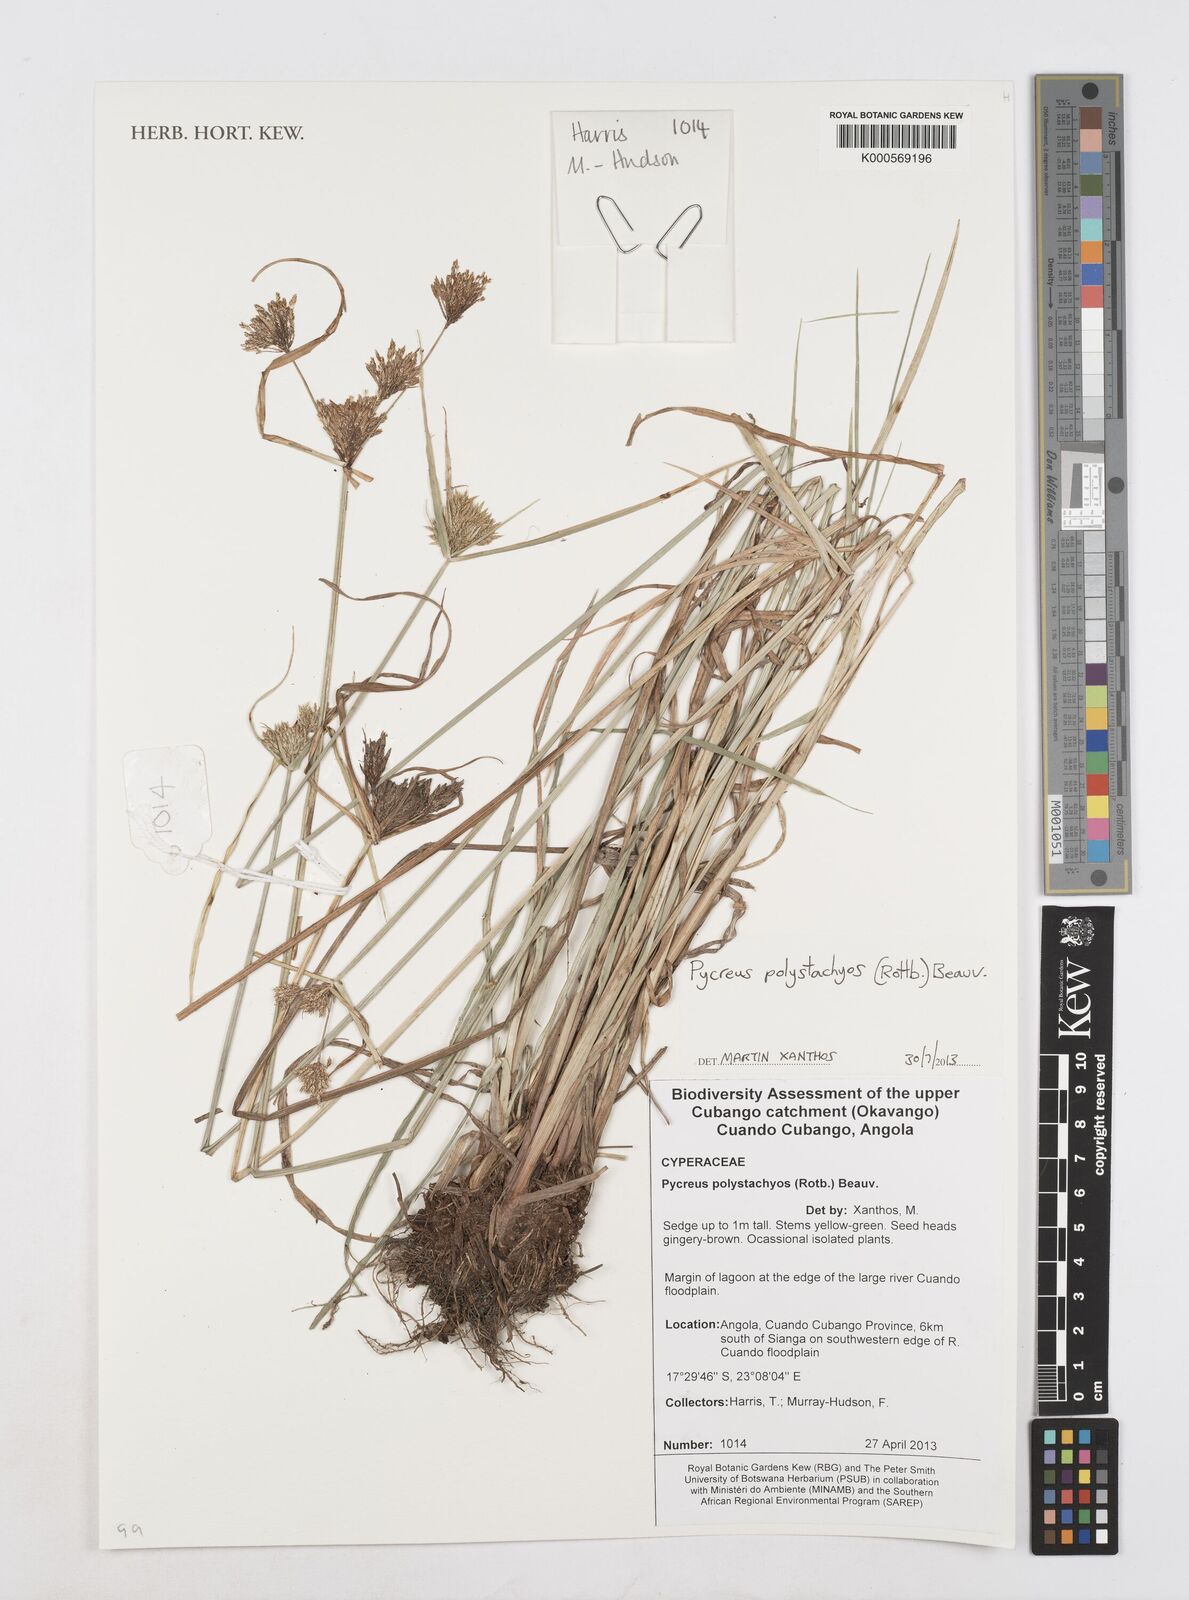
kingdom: Plantae
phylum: Tracheophyta
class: Liliopsida
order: Poales
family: Cyperaceae
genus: Cyperus
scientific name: Cyperus polystachyos
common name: Bunchy flat sedge
